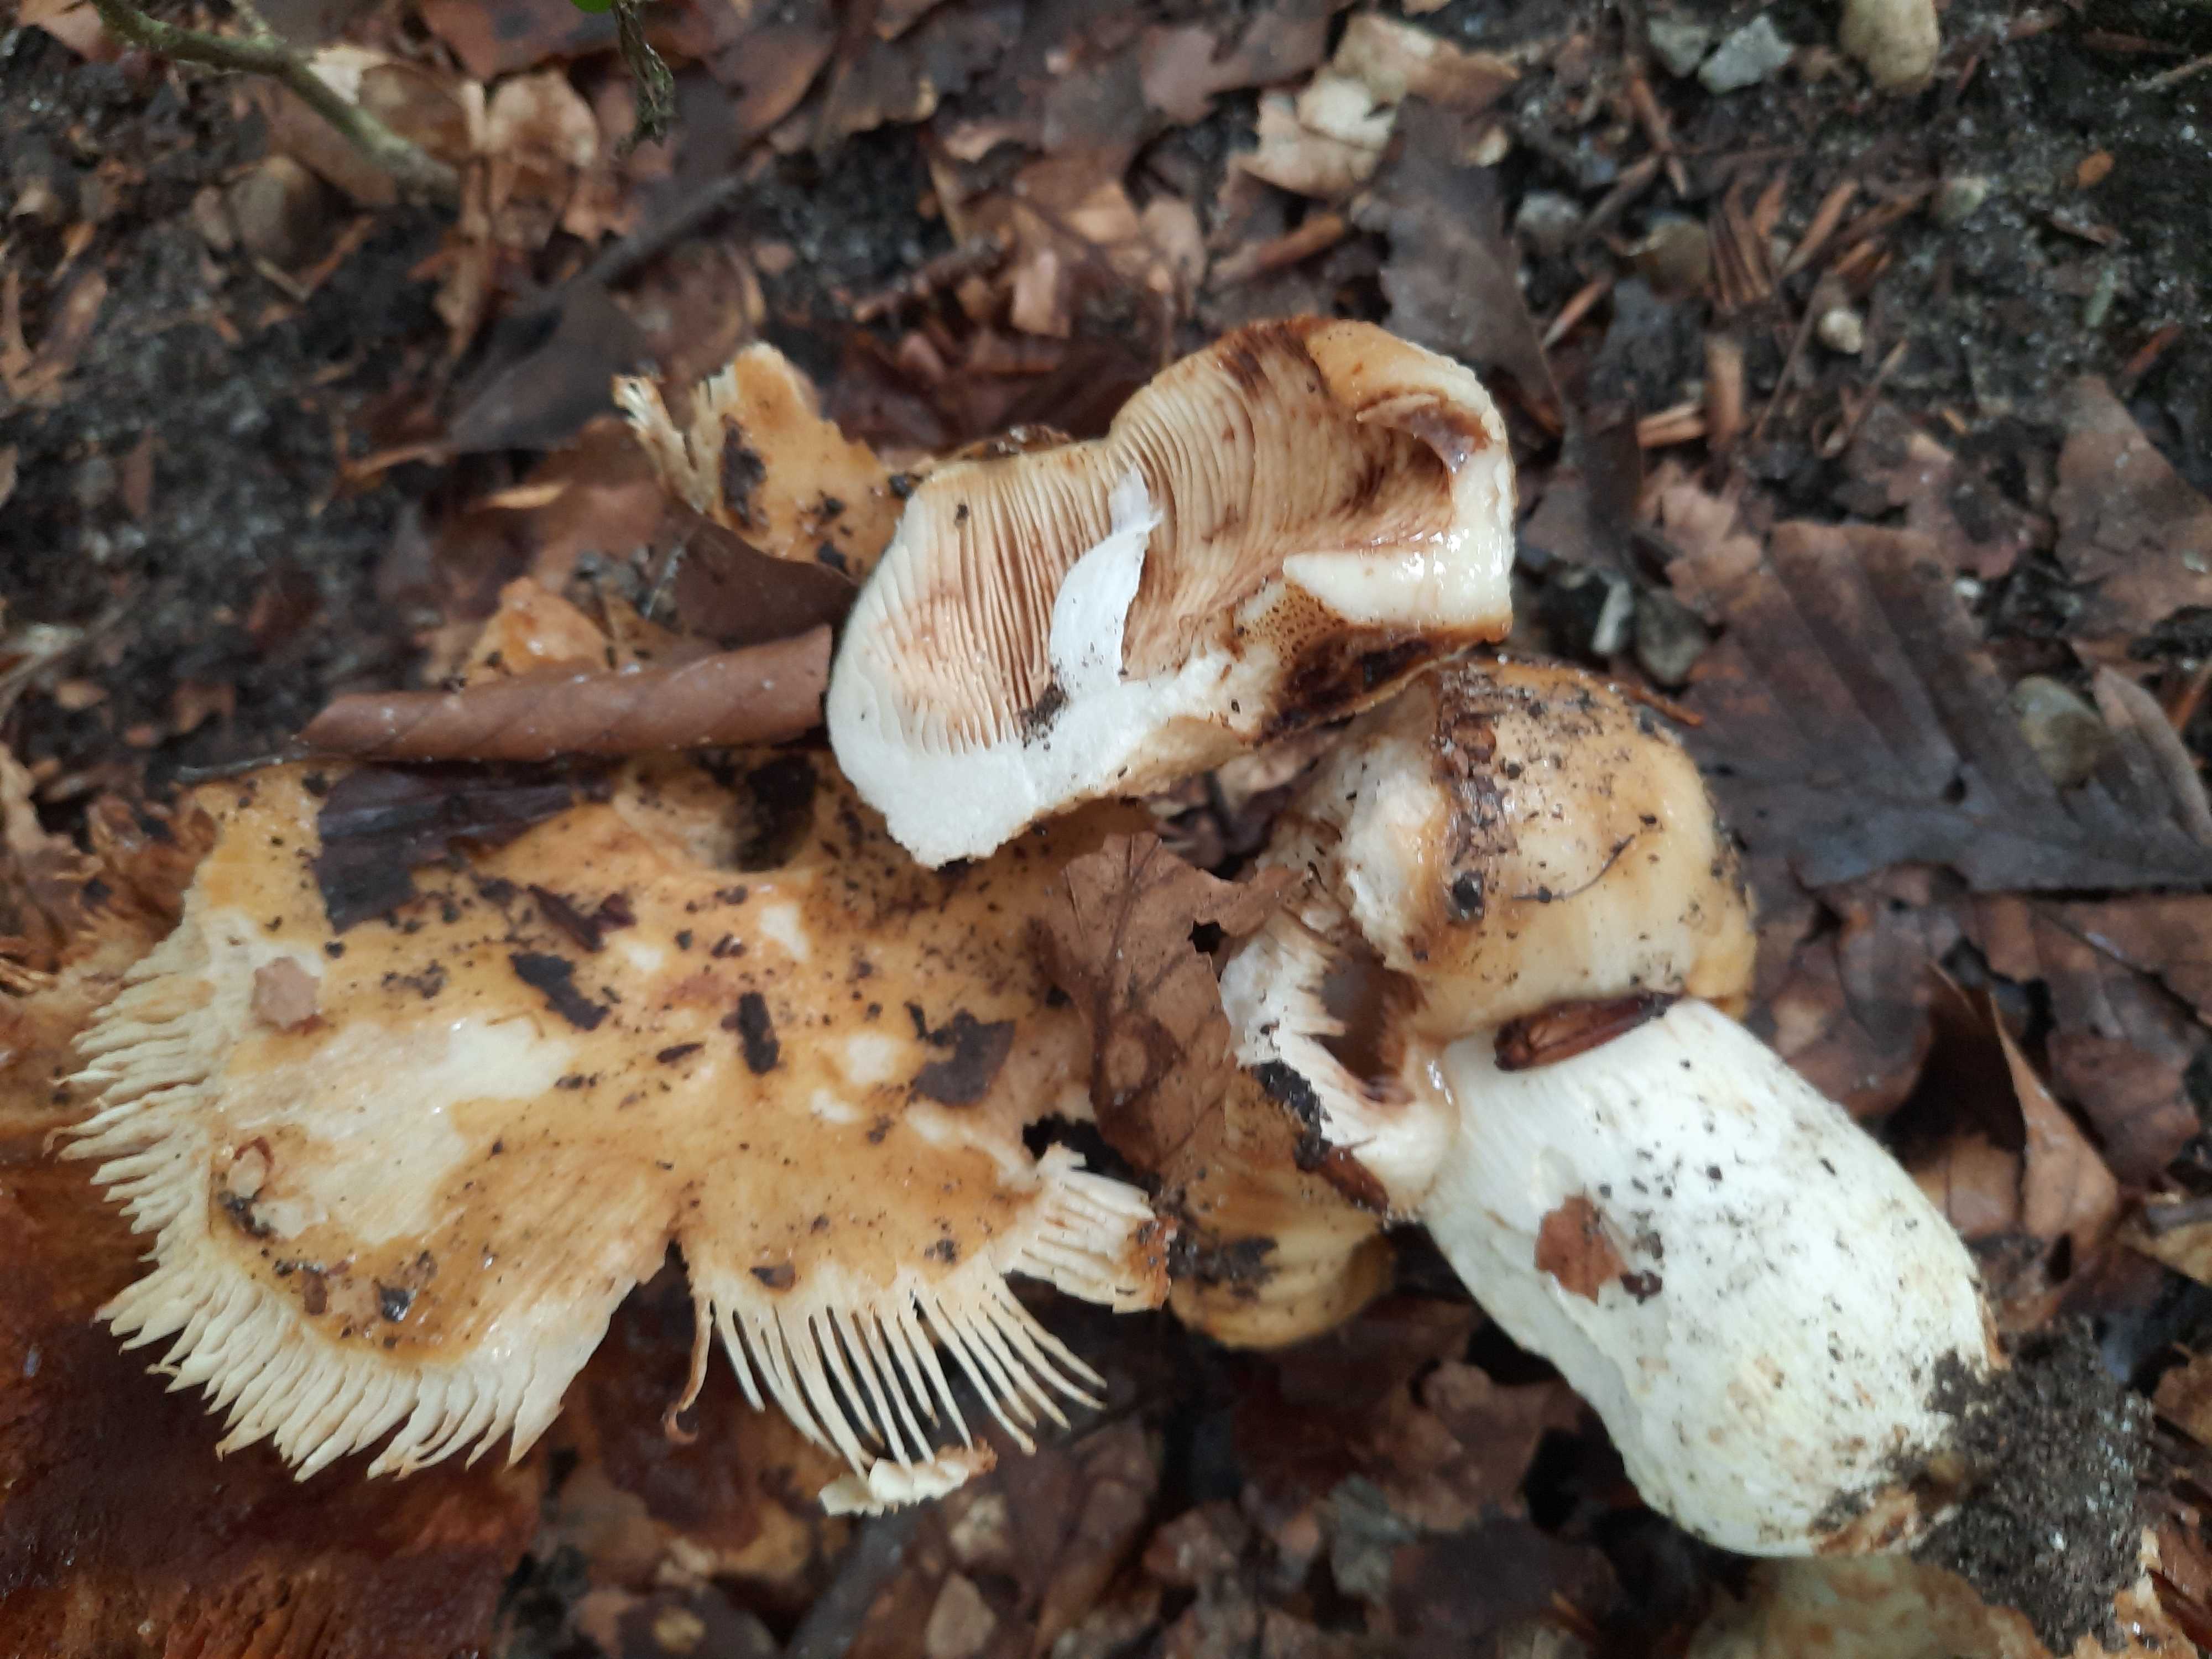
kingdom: Fungi
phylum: Basidiomycota
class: Agaricomycetes
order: Russulales
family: Russulaceae
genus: Russula
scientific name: Russula foetens
